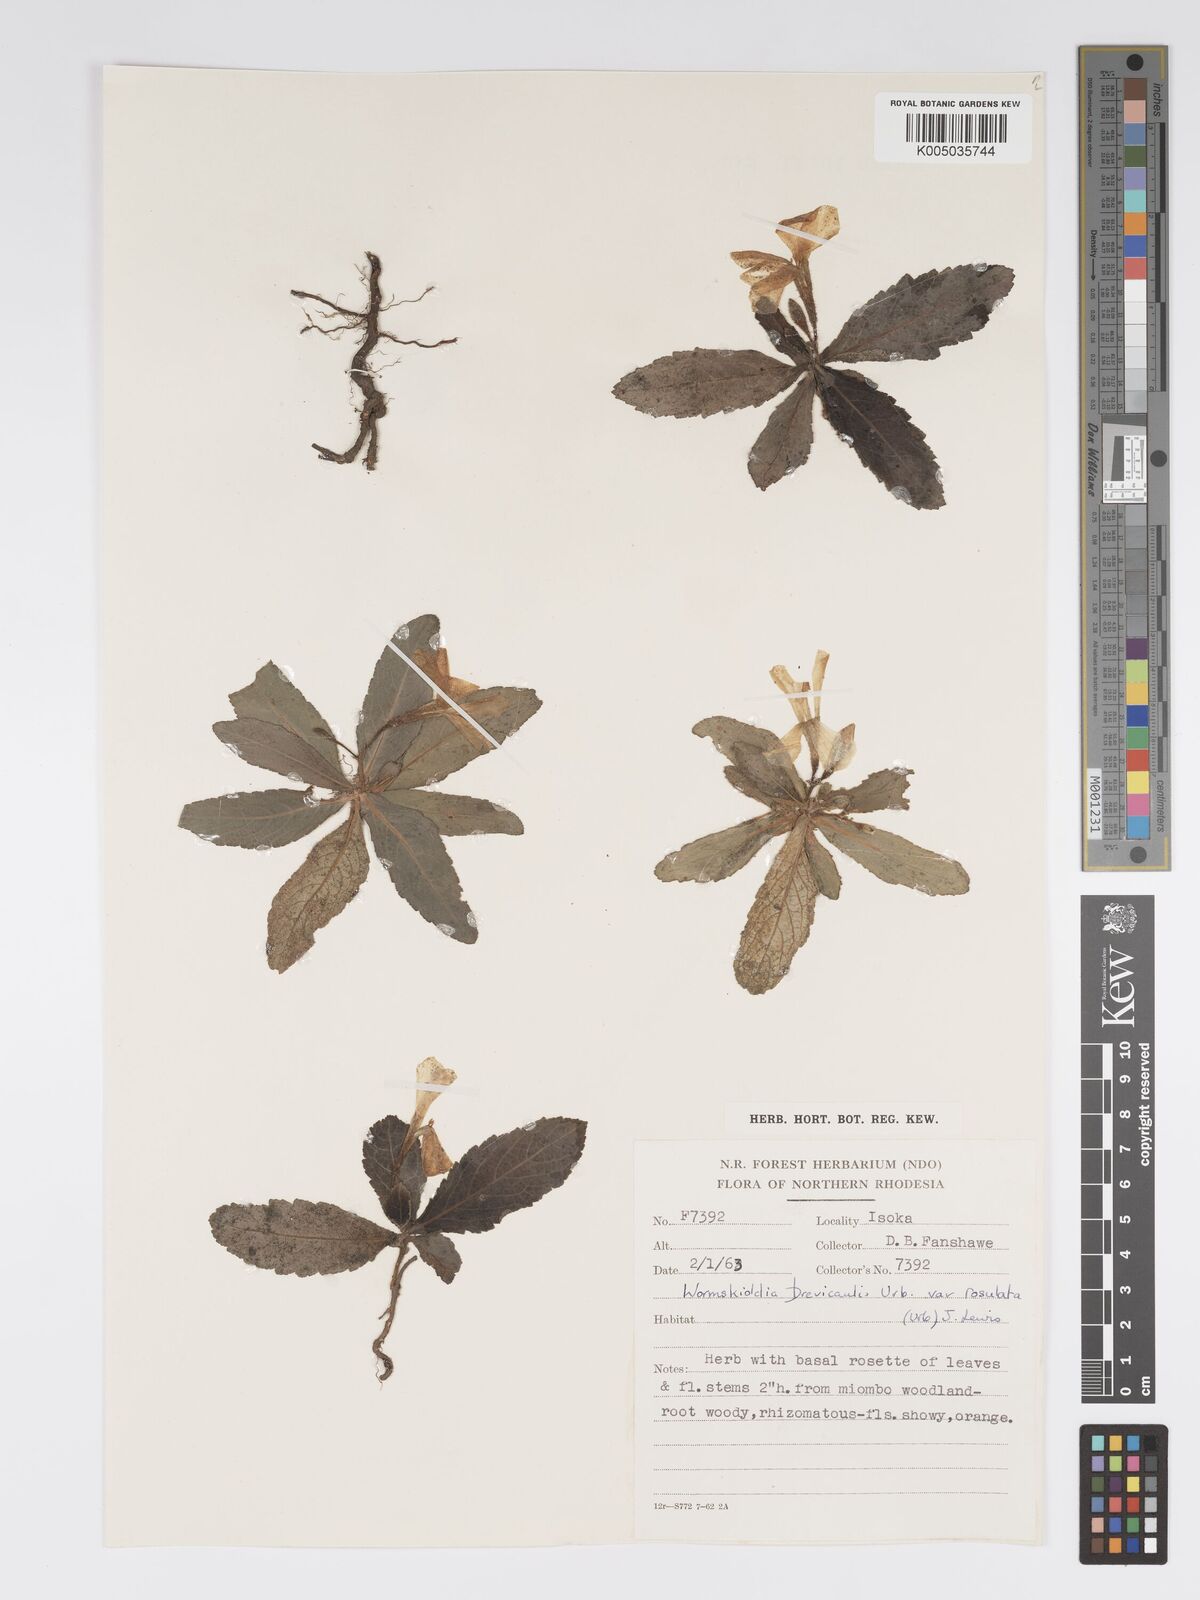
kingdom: Plantae
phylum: Tracheophyta
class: Magnoliopsida
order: Malpighiales
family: Turneraceae
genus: Tricliceras
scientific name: Tricliceras brevicaule
